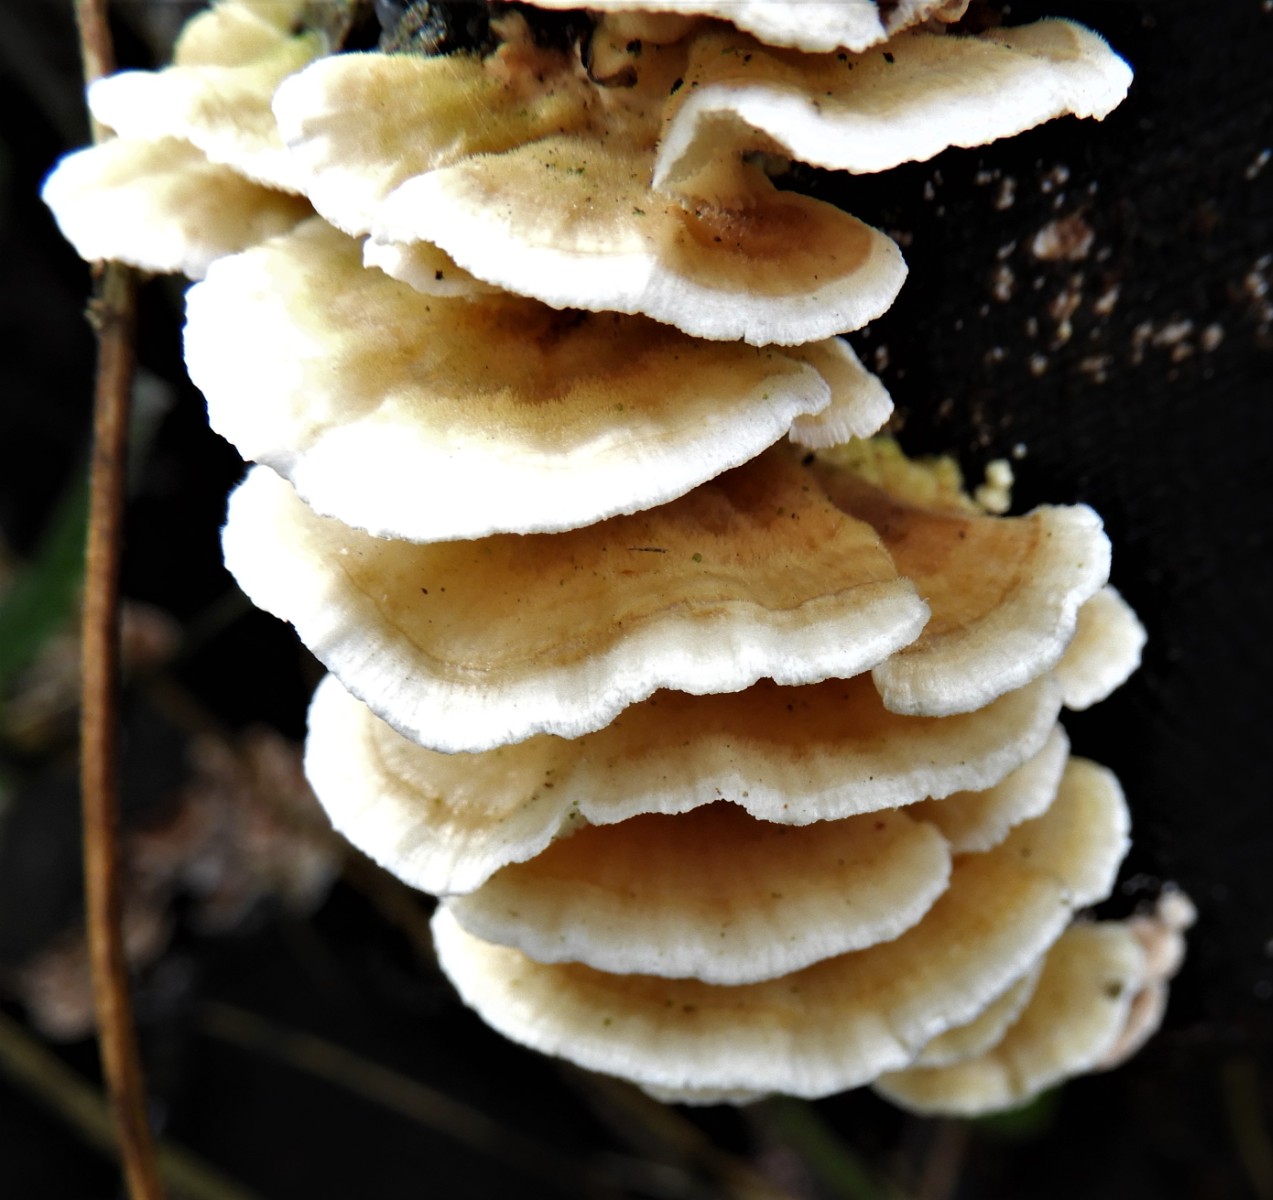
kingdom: Fungi
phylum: Basidiomycota
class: Agaricomycetes
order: Polyporales
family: Polyporaceae
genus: Trametes
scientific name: Trametes ochracea
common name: bæltet læderporesvamp
